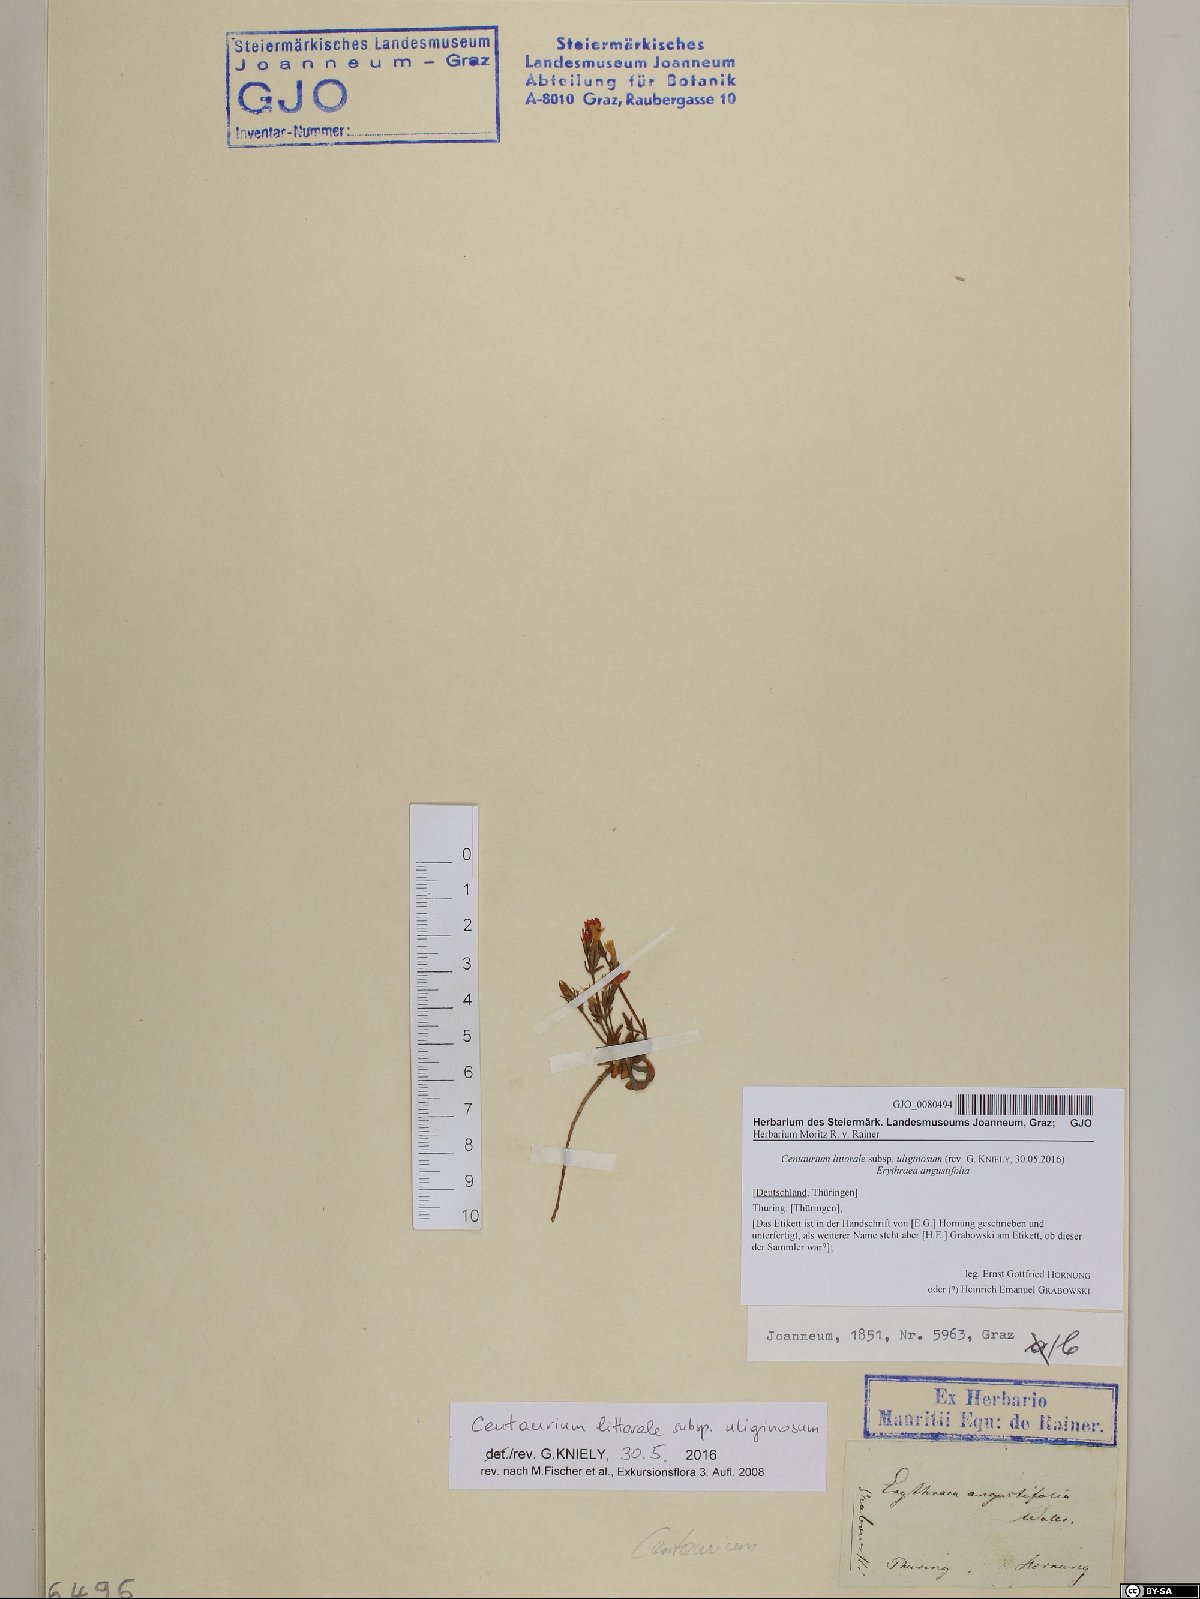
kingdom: Plantae
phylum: Tracheophyta
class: Magnoliopsida
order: Gentianales
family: Gentianaceae
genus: Centaurium
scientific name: Centaurium littorale
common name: Seaside centaury
